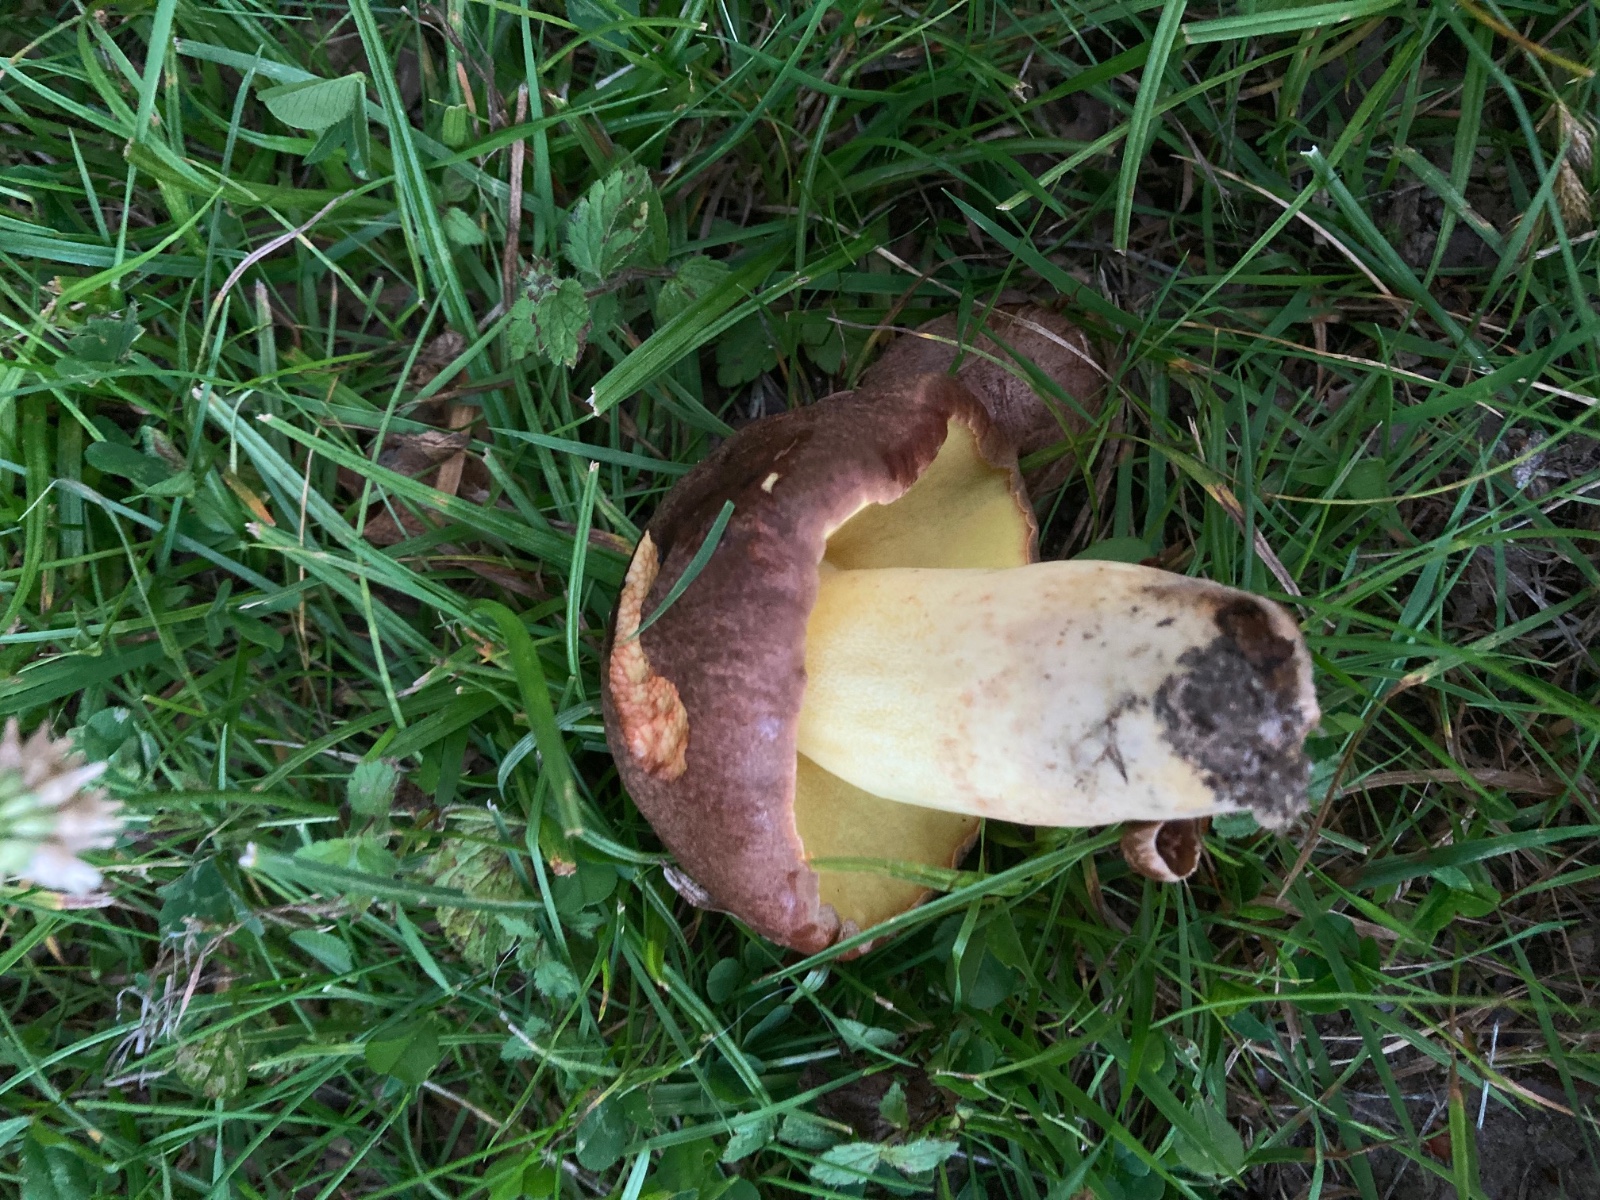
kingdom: Fungi
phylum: Basidiomycota
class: Agaricomycetes
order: Boletales
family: Boletaceae
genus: Butyriboletus
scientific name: Butyriboletus appendiculatus
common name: tenstokket rørhat
